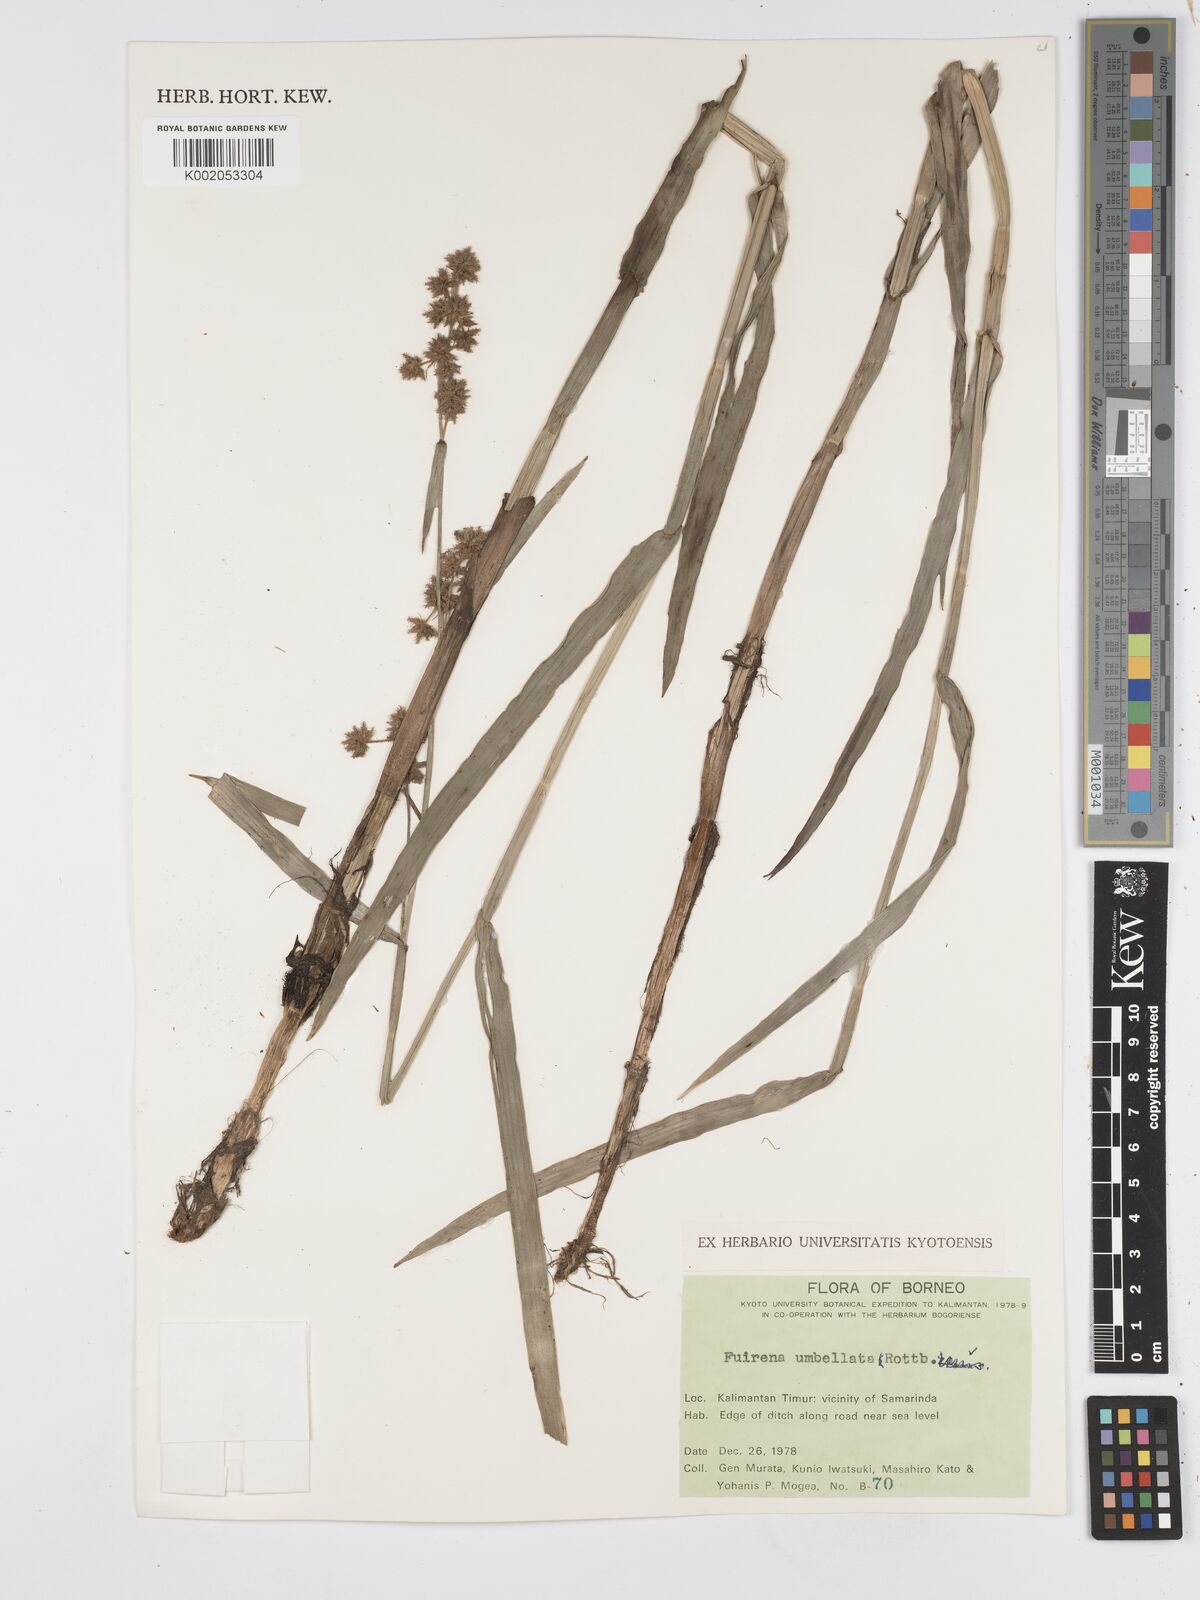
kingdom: Plantae
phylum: Tracheophyta
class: Liliopsida
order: Poales
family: Cyperaceae
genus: Fuirena
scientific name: Fuirena umbellata
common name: Yefen
